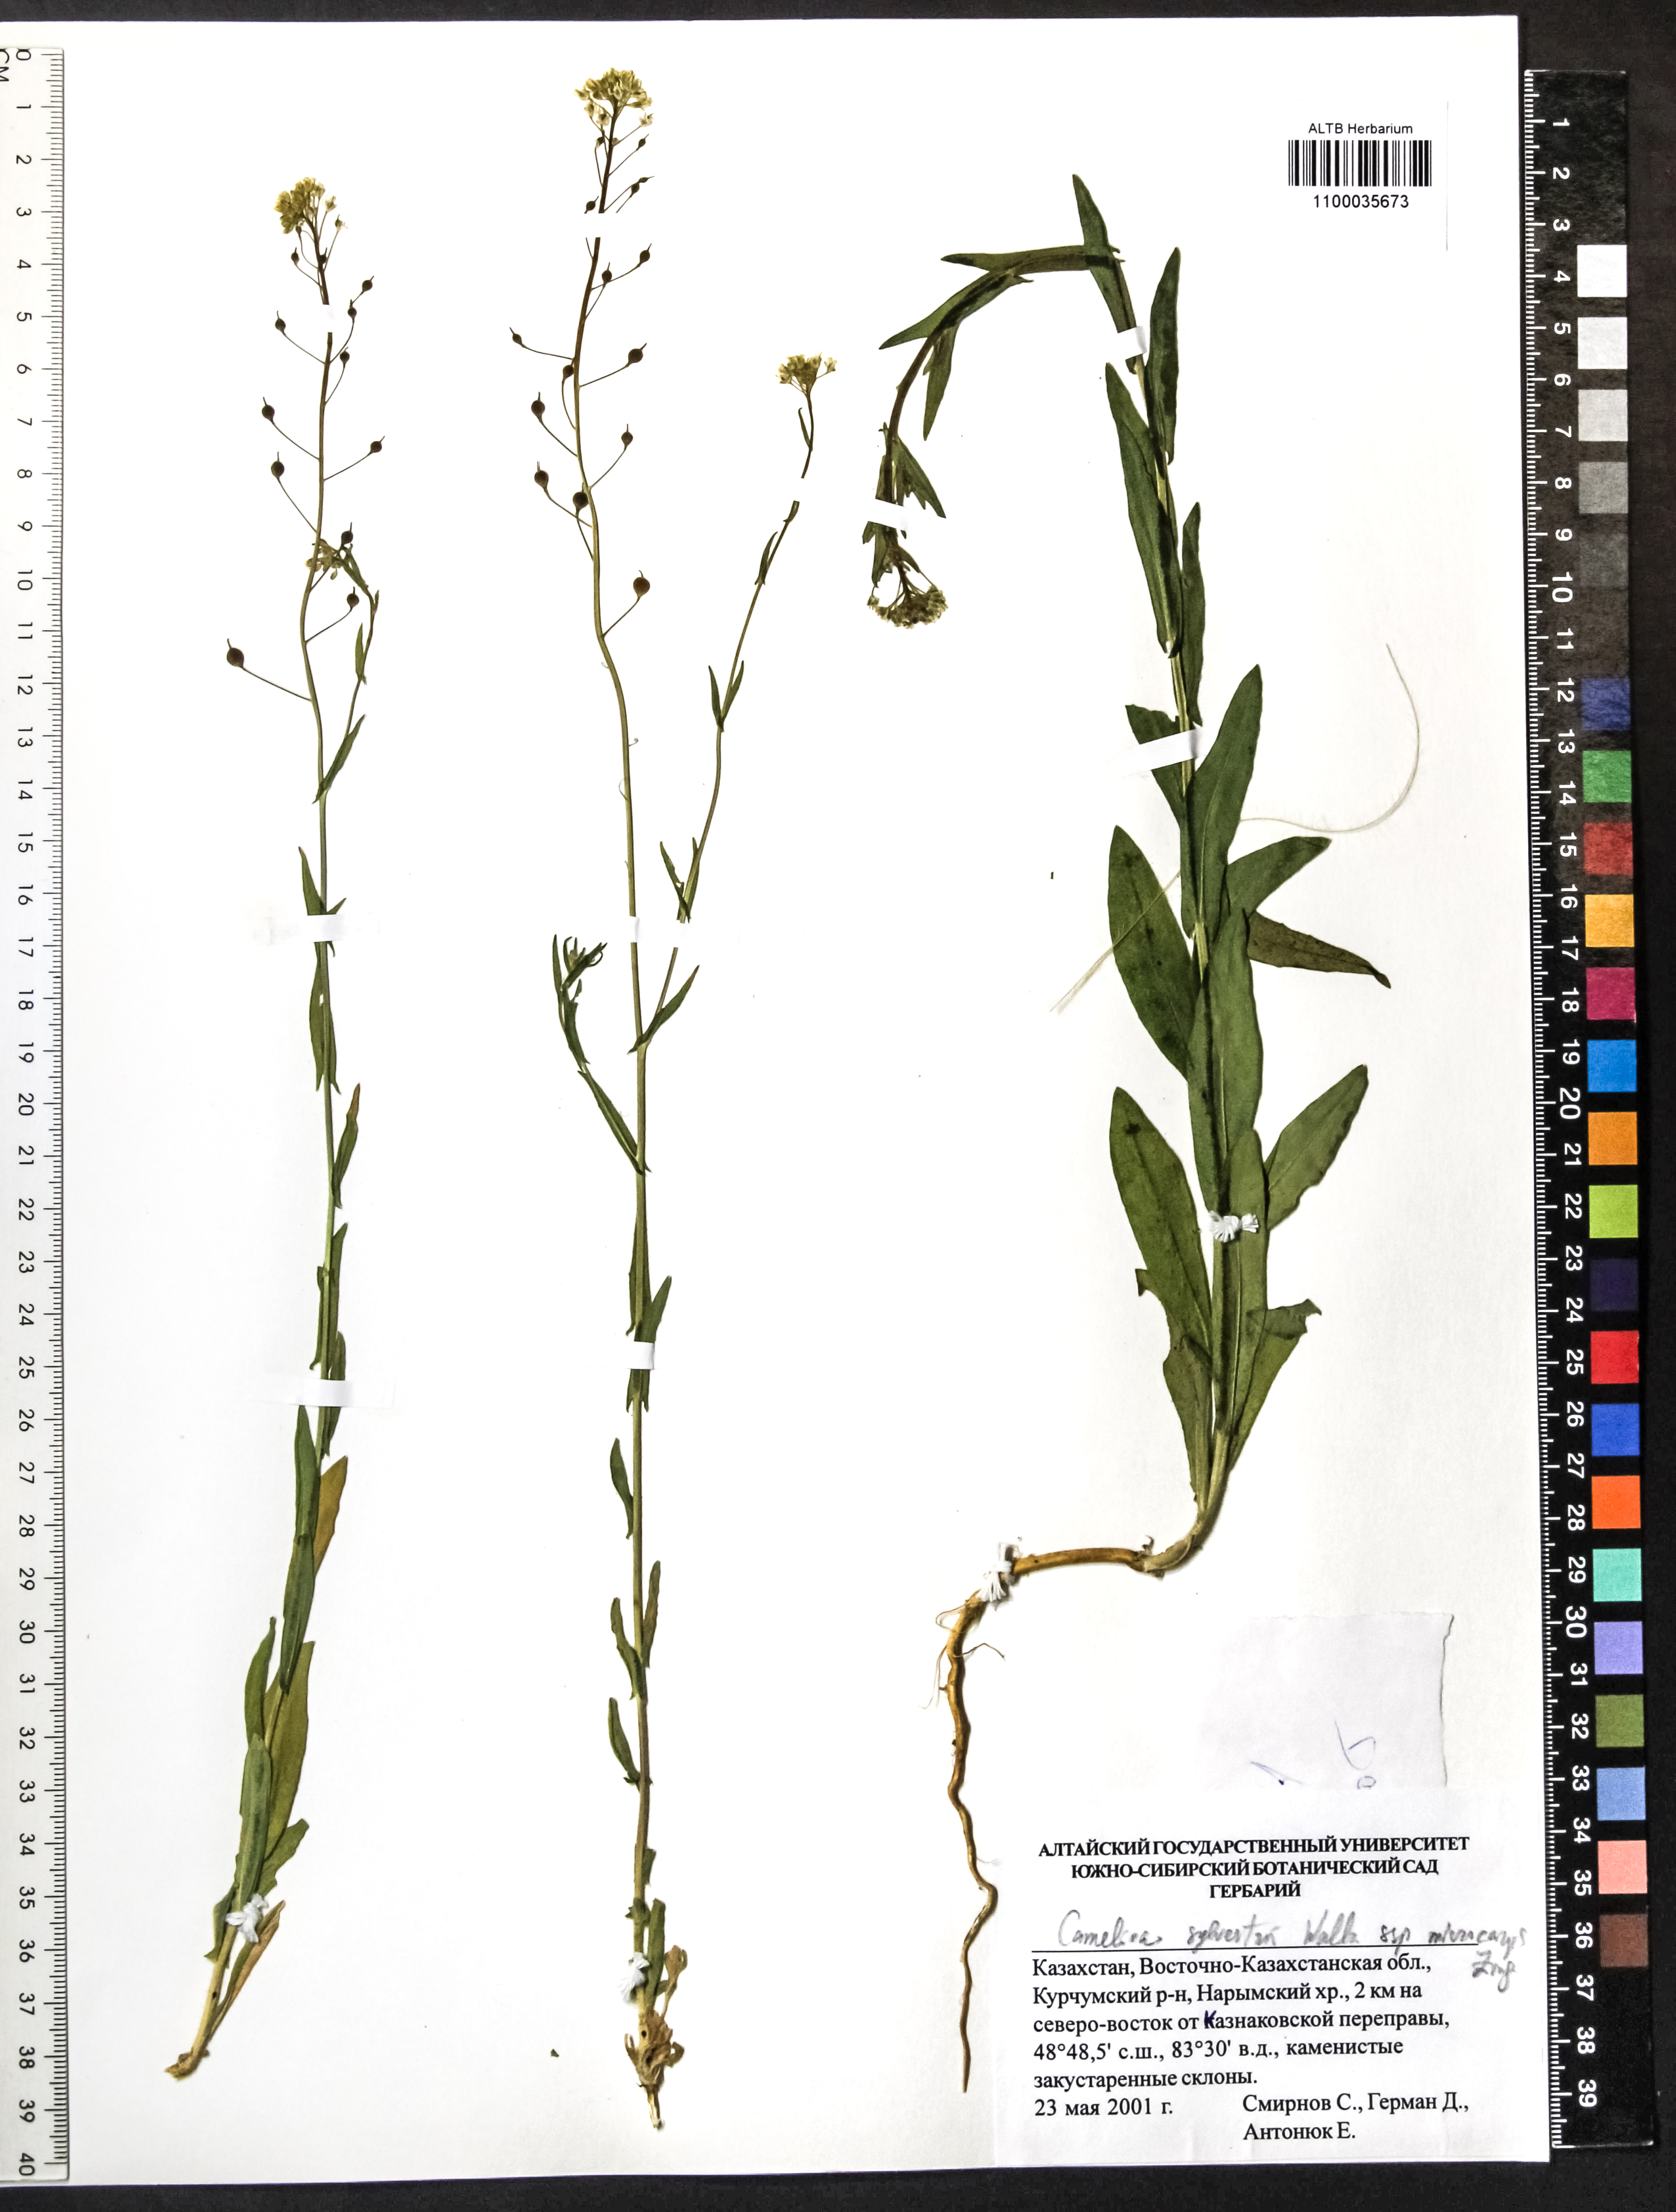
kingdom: Plantae
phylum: Tracheophyta
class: Magnoliopsida
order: Brassicales
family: Brassicaceae
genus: Camelina
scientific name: Camelina microcarpa
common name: Lesser gold-of-pleasure
